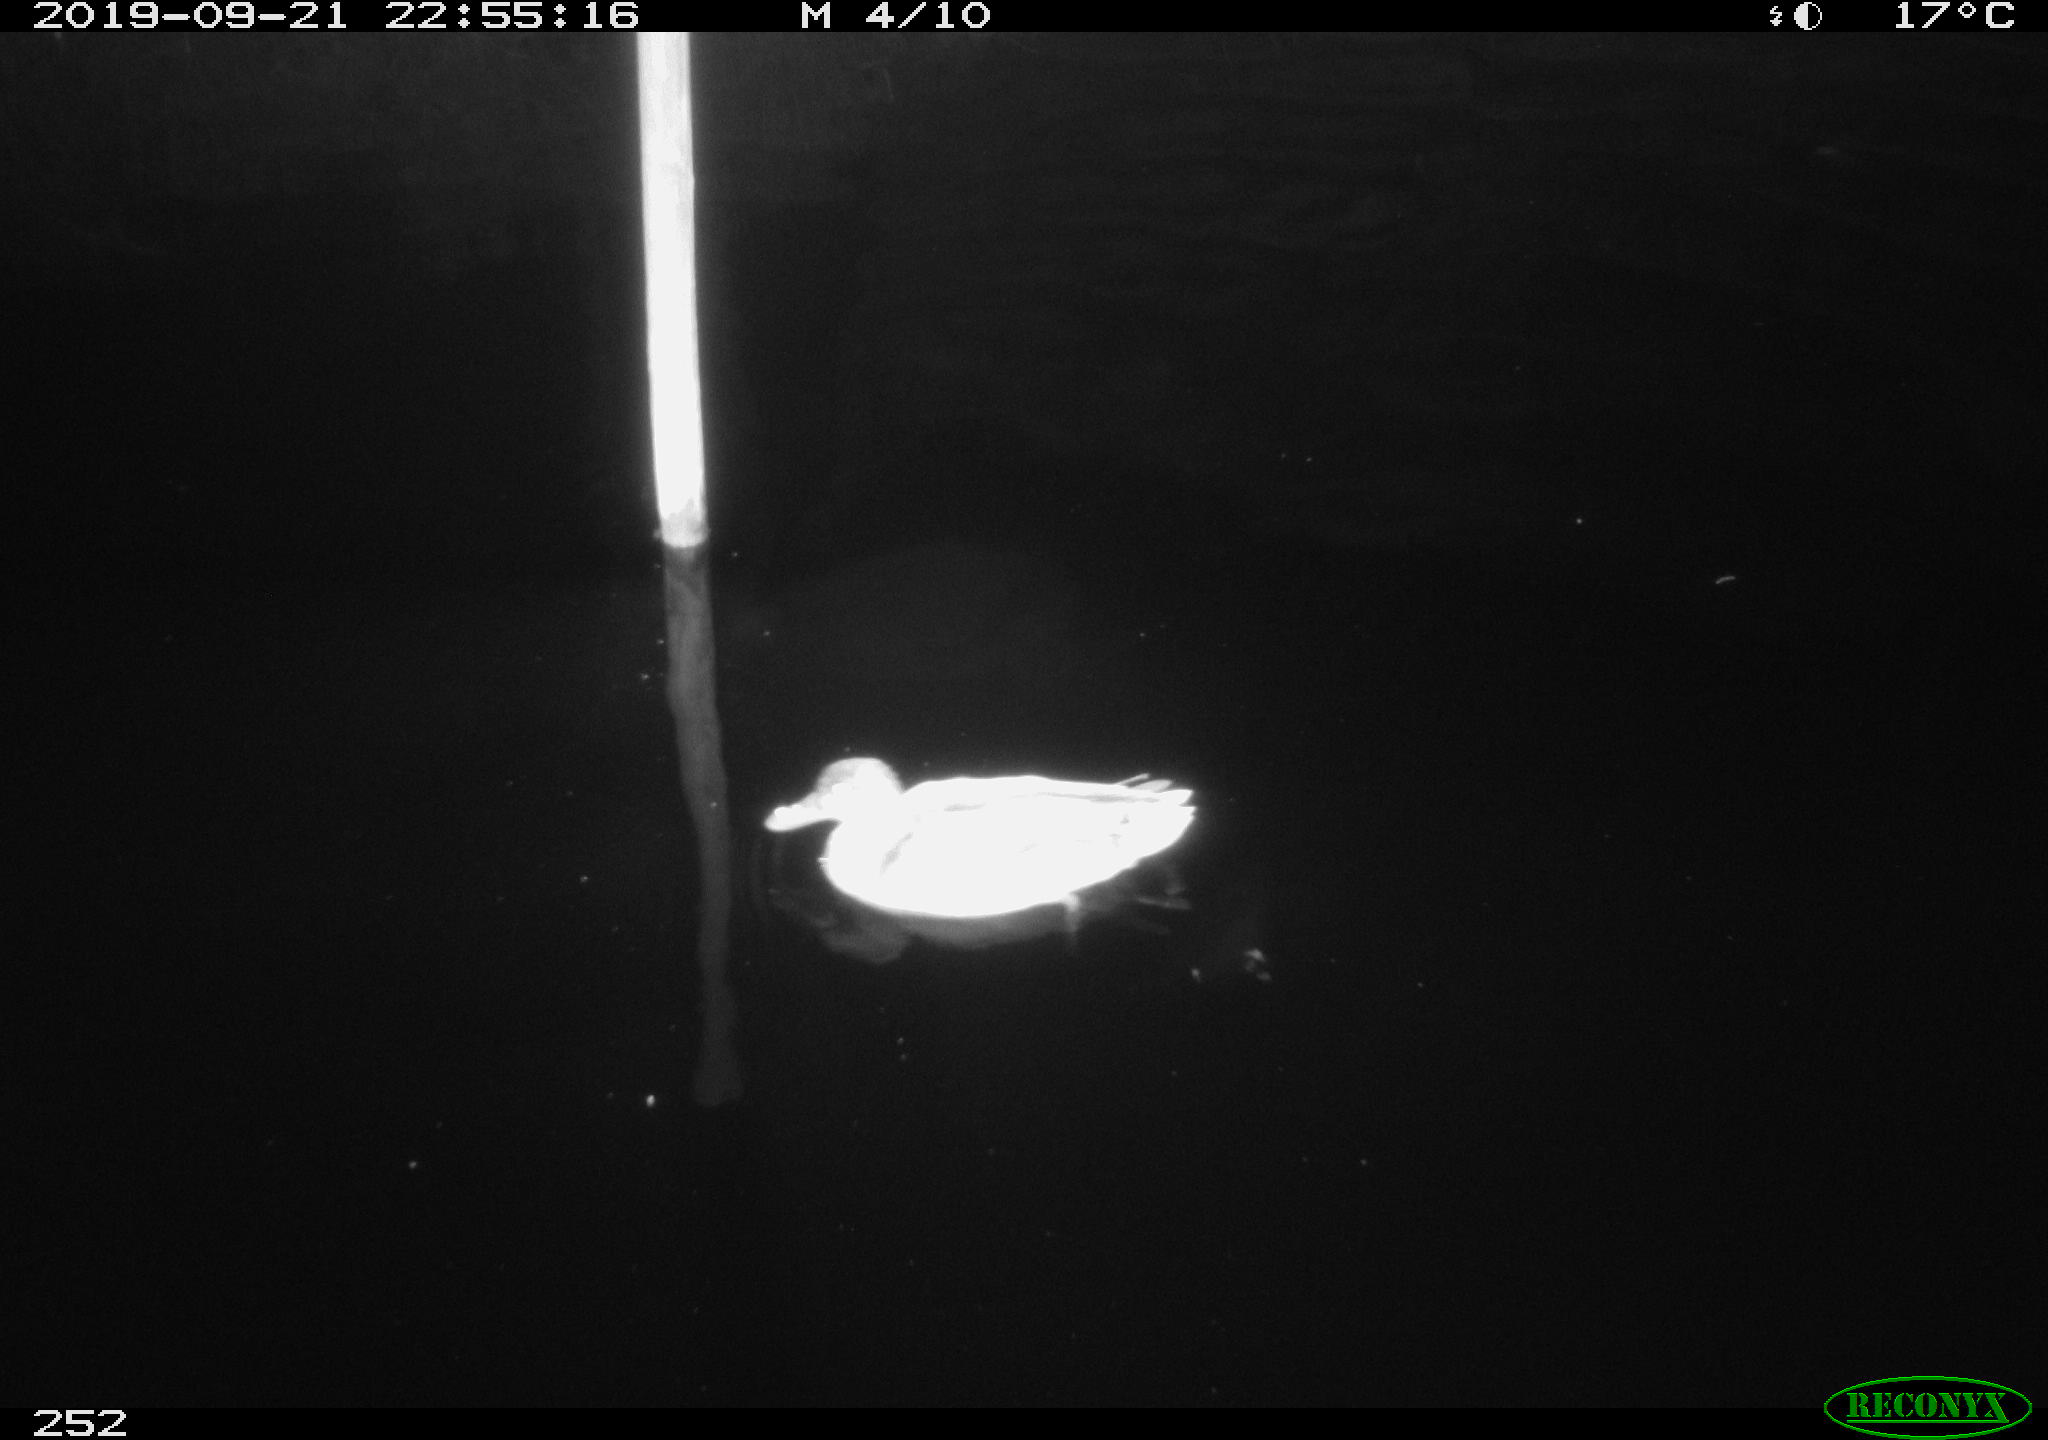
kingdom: Animalia
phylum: Chordata
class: Aves
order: Anseriformes
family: Anatidae
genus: Anas
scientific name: Anas platyrhynchos
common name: Mallard
